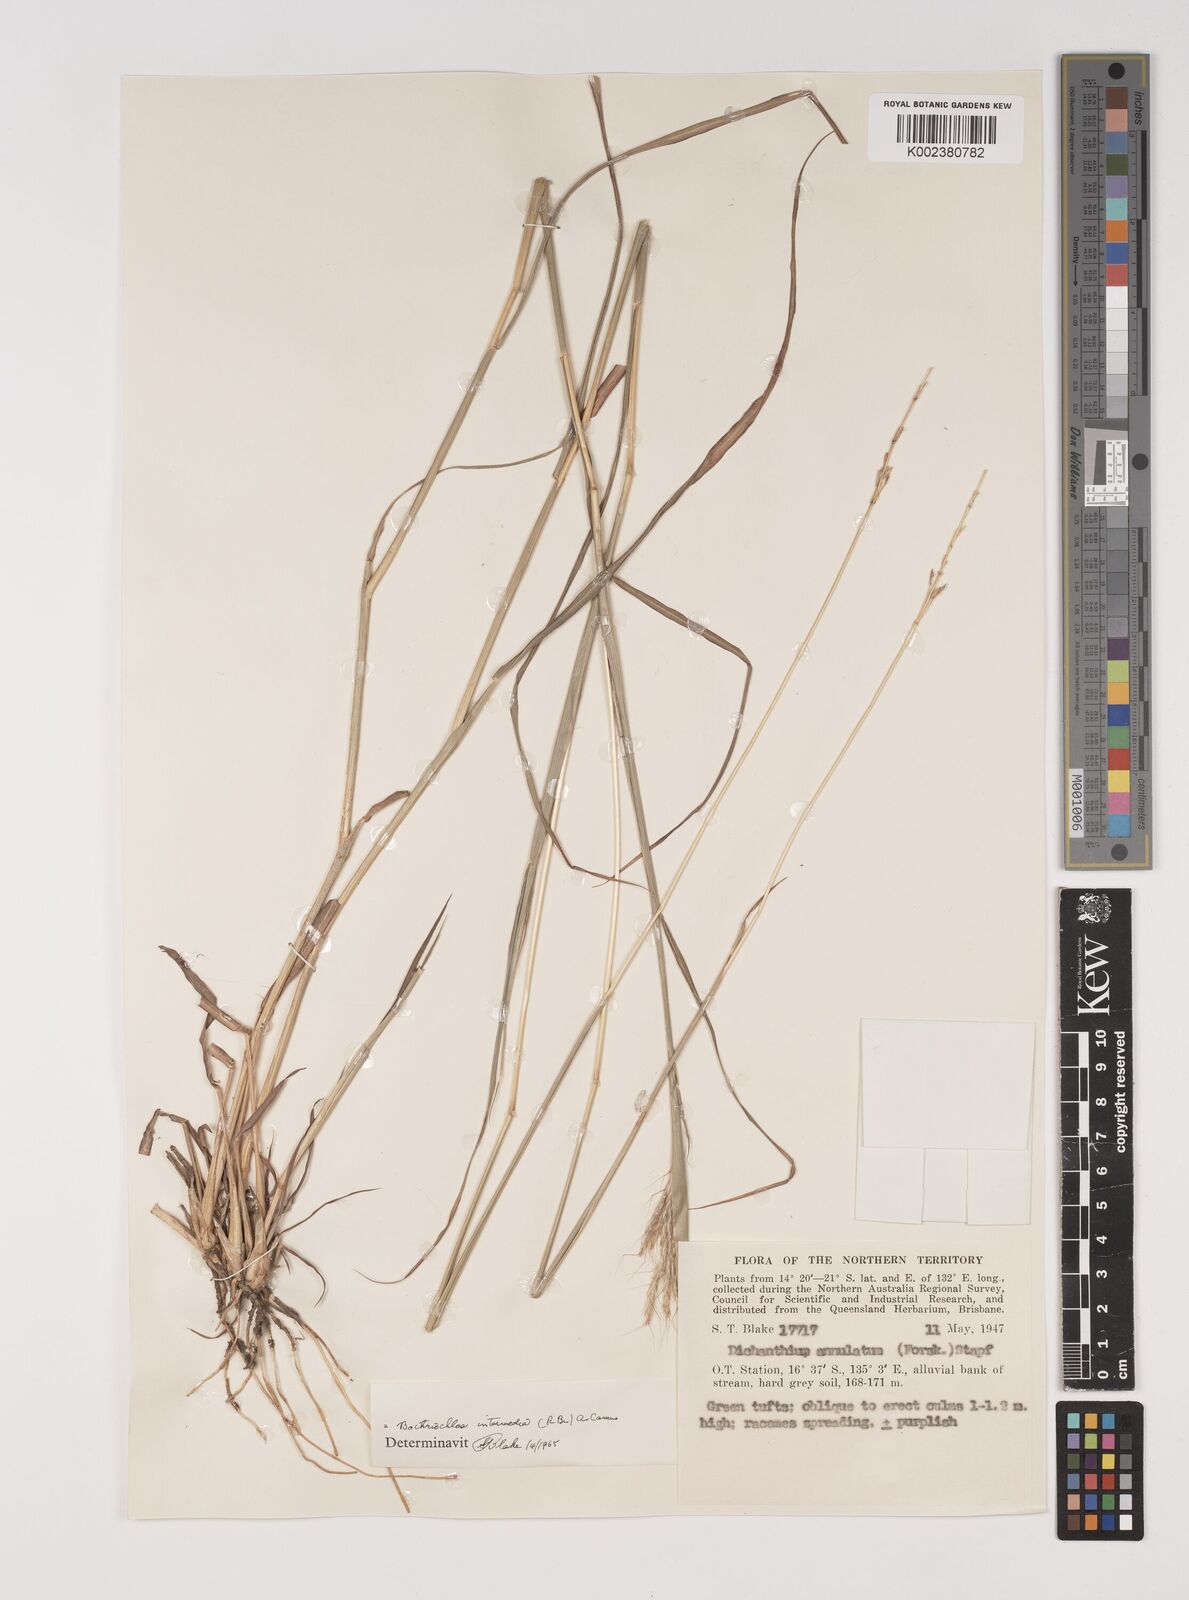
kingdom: Plantae
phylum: Tracheophyta
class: Liliopsida
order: Poales
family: Poaceae
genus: Bothriochloa
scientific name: Bothriochloa bladhii
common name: Caucasian bluestem
